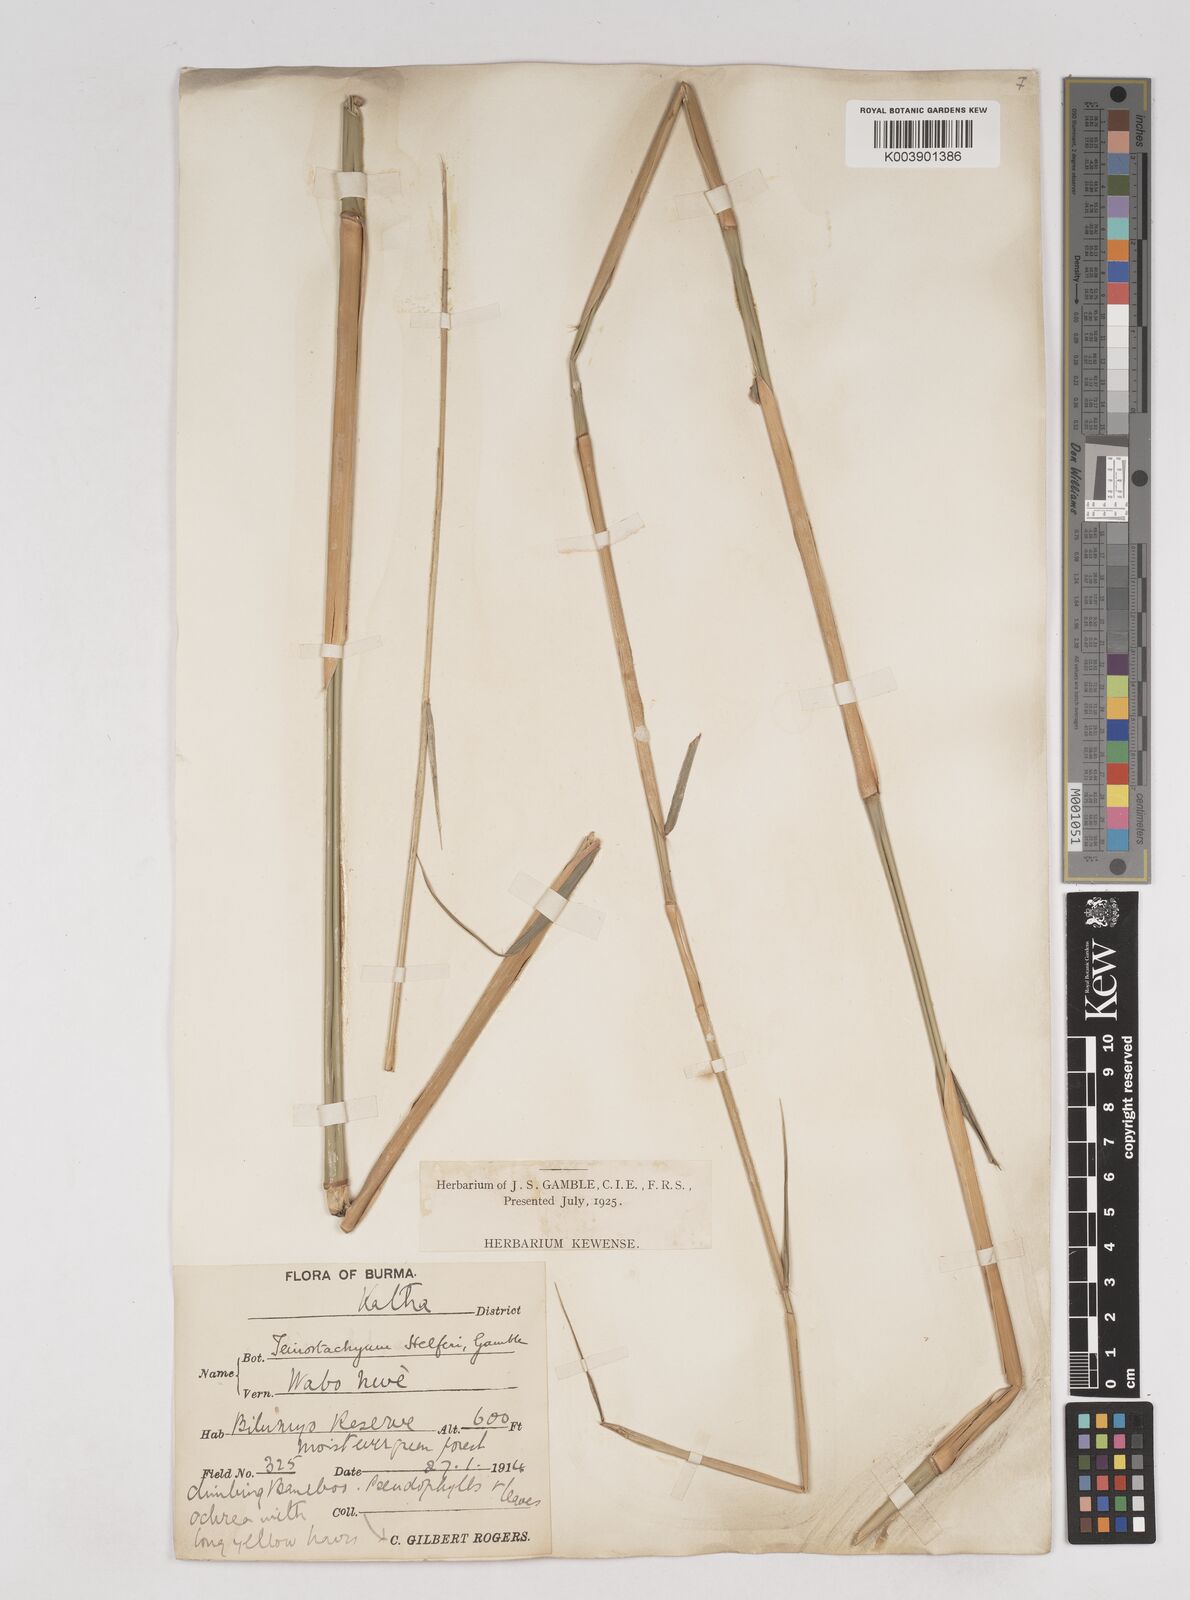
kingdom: Plantae
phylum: Tracheophyta
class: Liliopsida
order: Poales
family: Poaceae
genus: Schizostachyum
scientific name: Schizostachyum helferi
